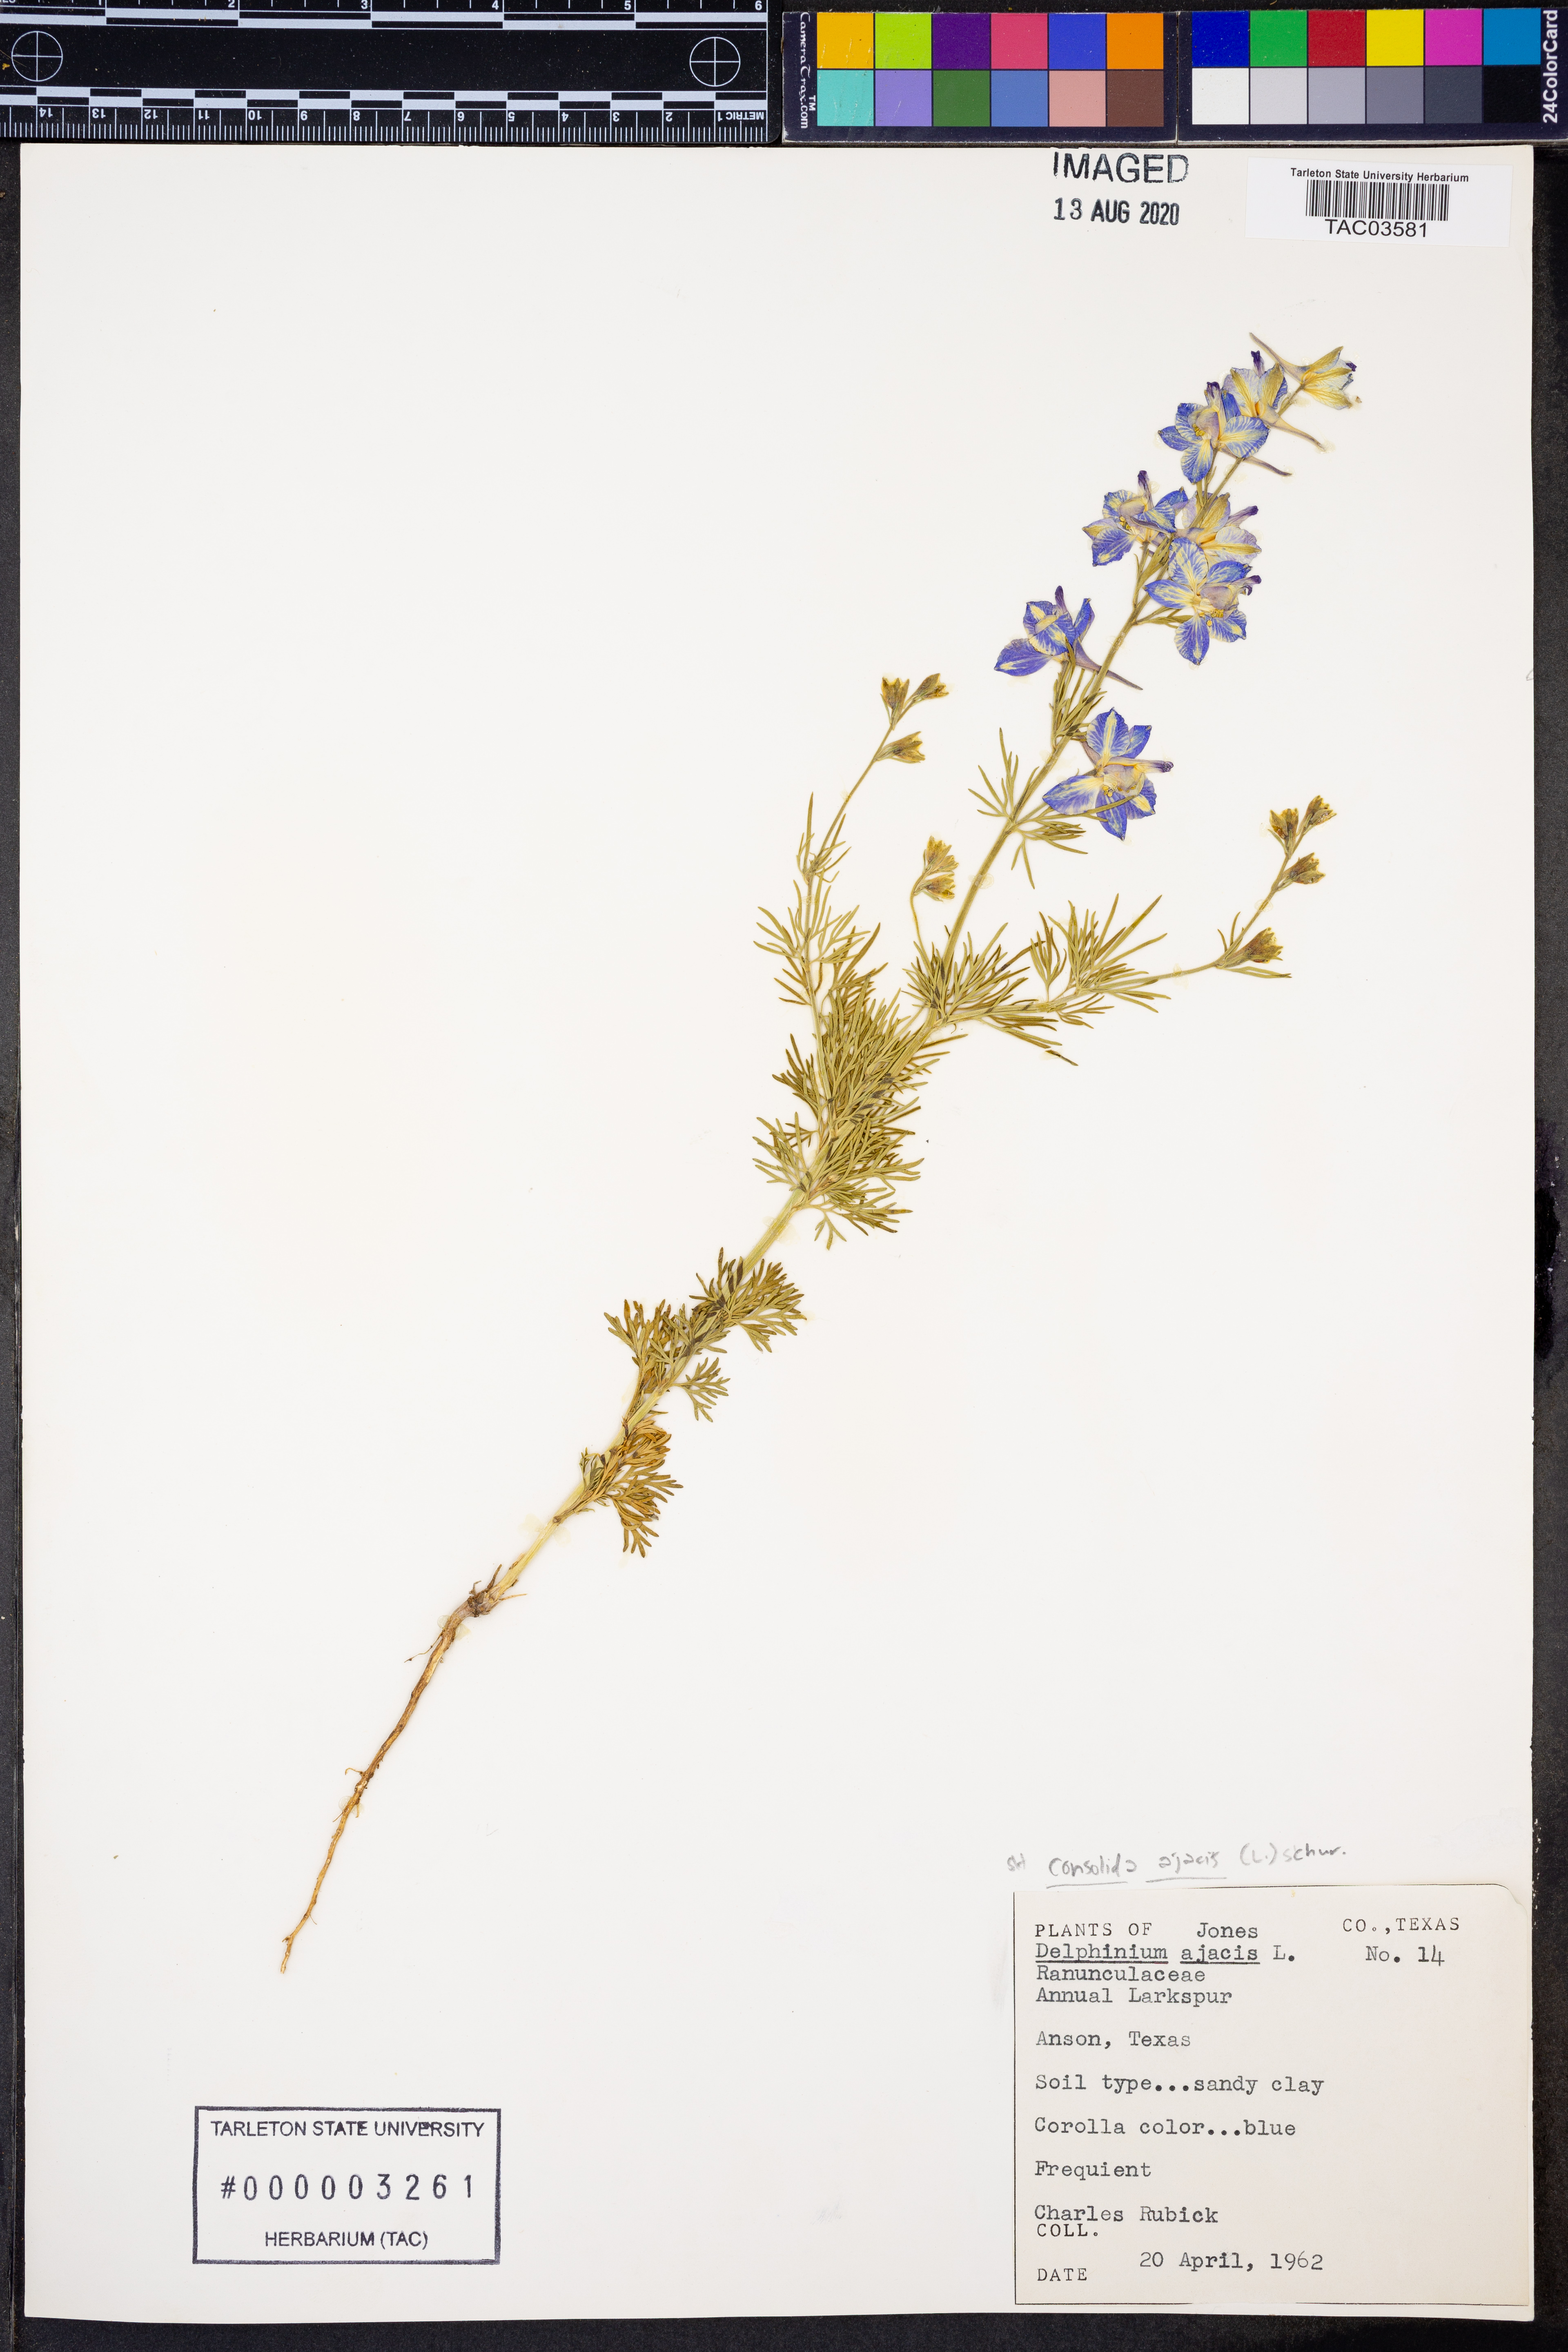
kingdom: Plantae
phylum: Tracheophyta
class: Magnoliopsida
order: Ranunculales
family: Ranunculaceae
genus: Delphinium
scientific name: Delphinium ajacis
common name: Doubtful knight's-spur
